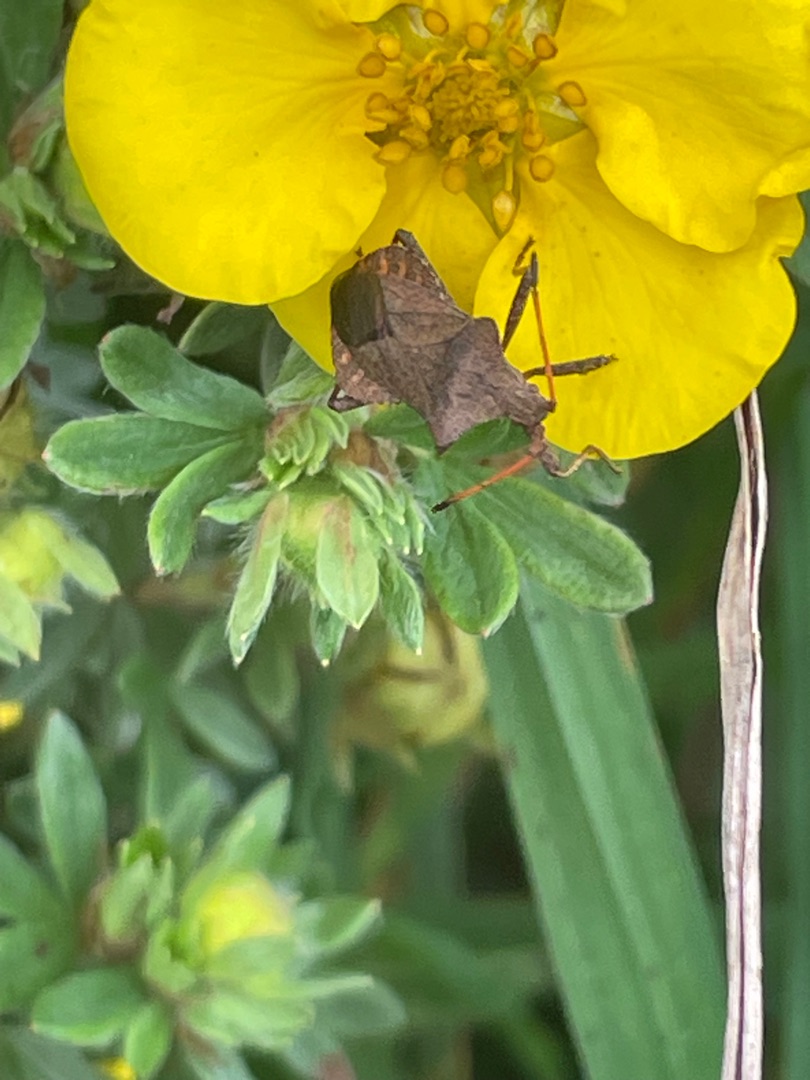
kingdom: Animalia
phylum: Arthropoda
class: Insecta
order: Hemiptera
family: Coreidae
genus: Coreus
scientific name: Coreus marginatus
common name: Skræppetæge
